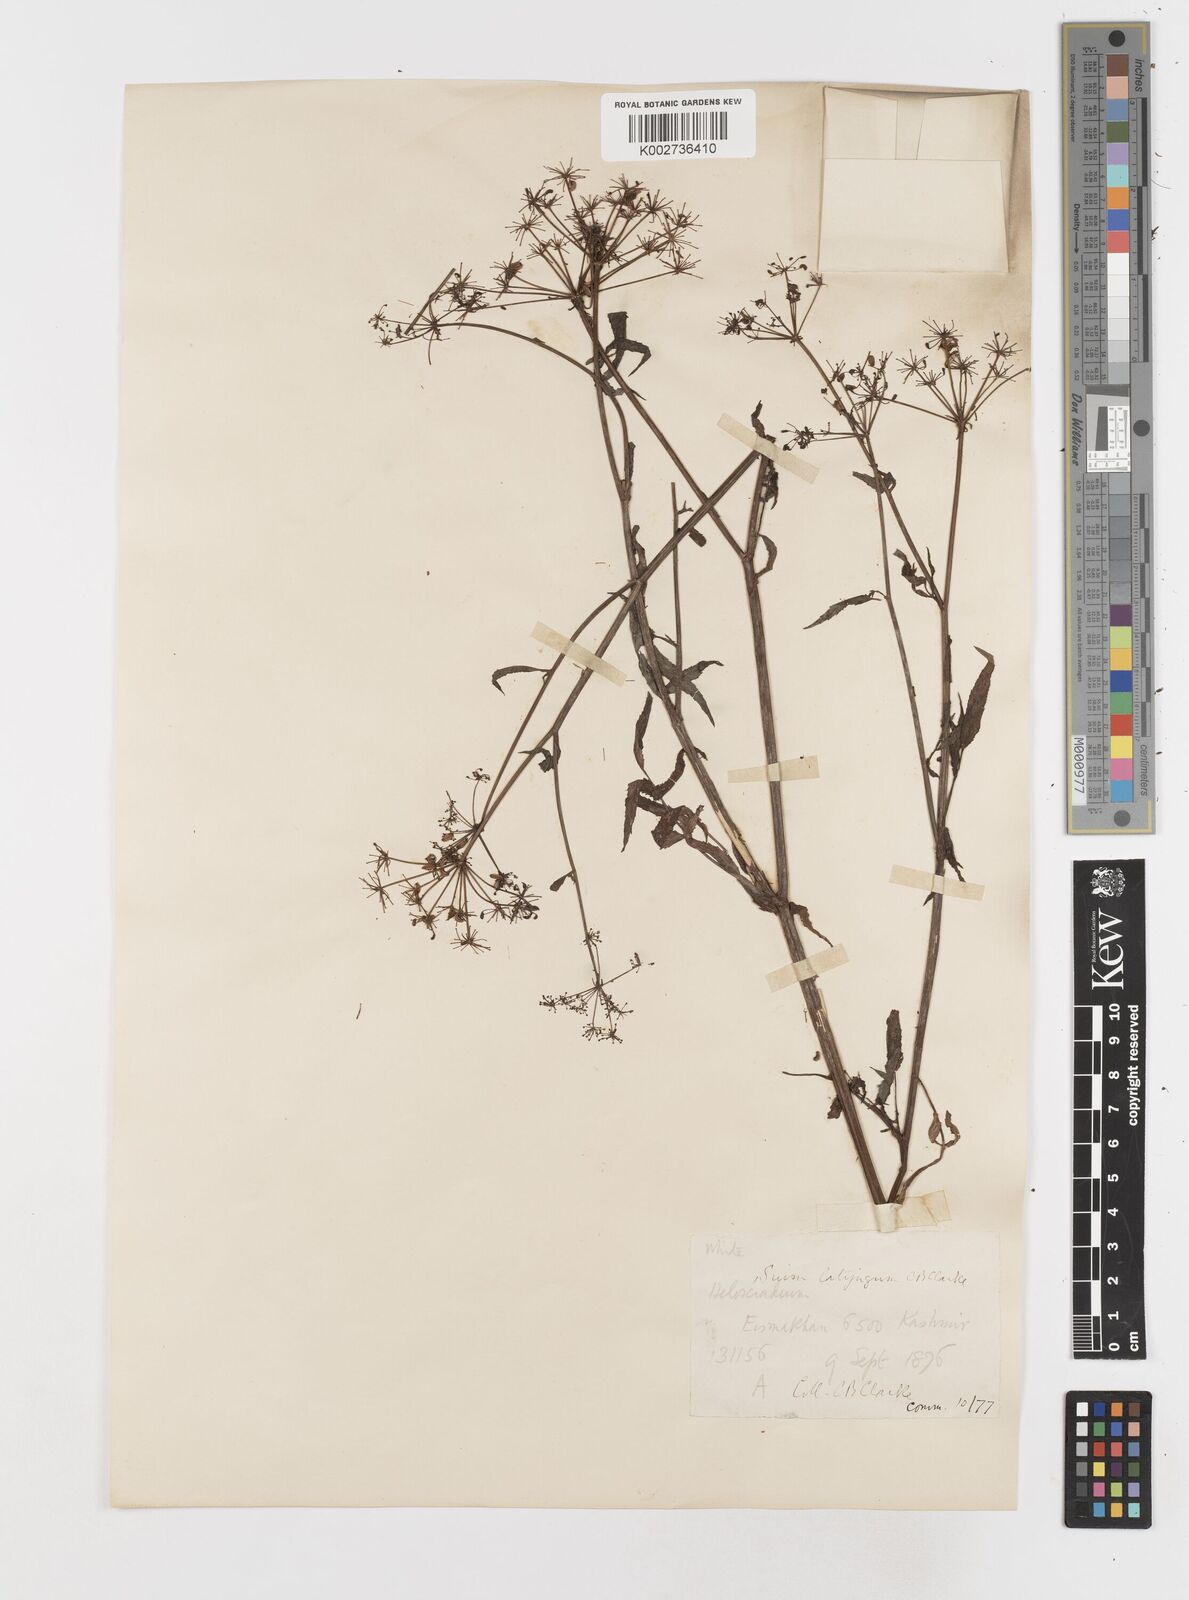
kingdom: Plantae
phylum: Tracheophyta
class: Magnoliopsida
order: Apiales
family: Apiaceae
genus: Sium
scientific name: Sium sisarum
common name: Skirret
